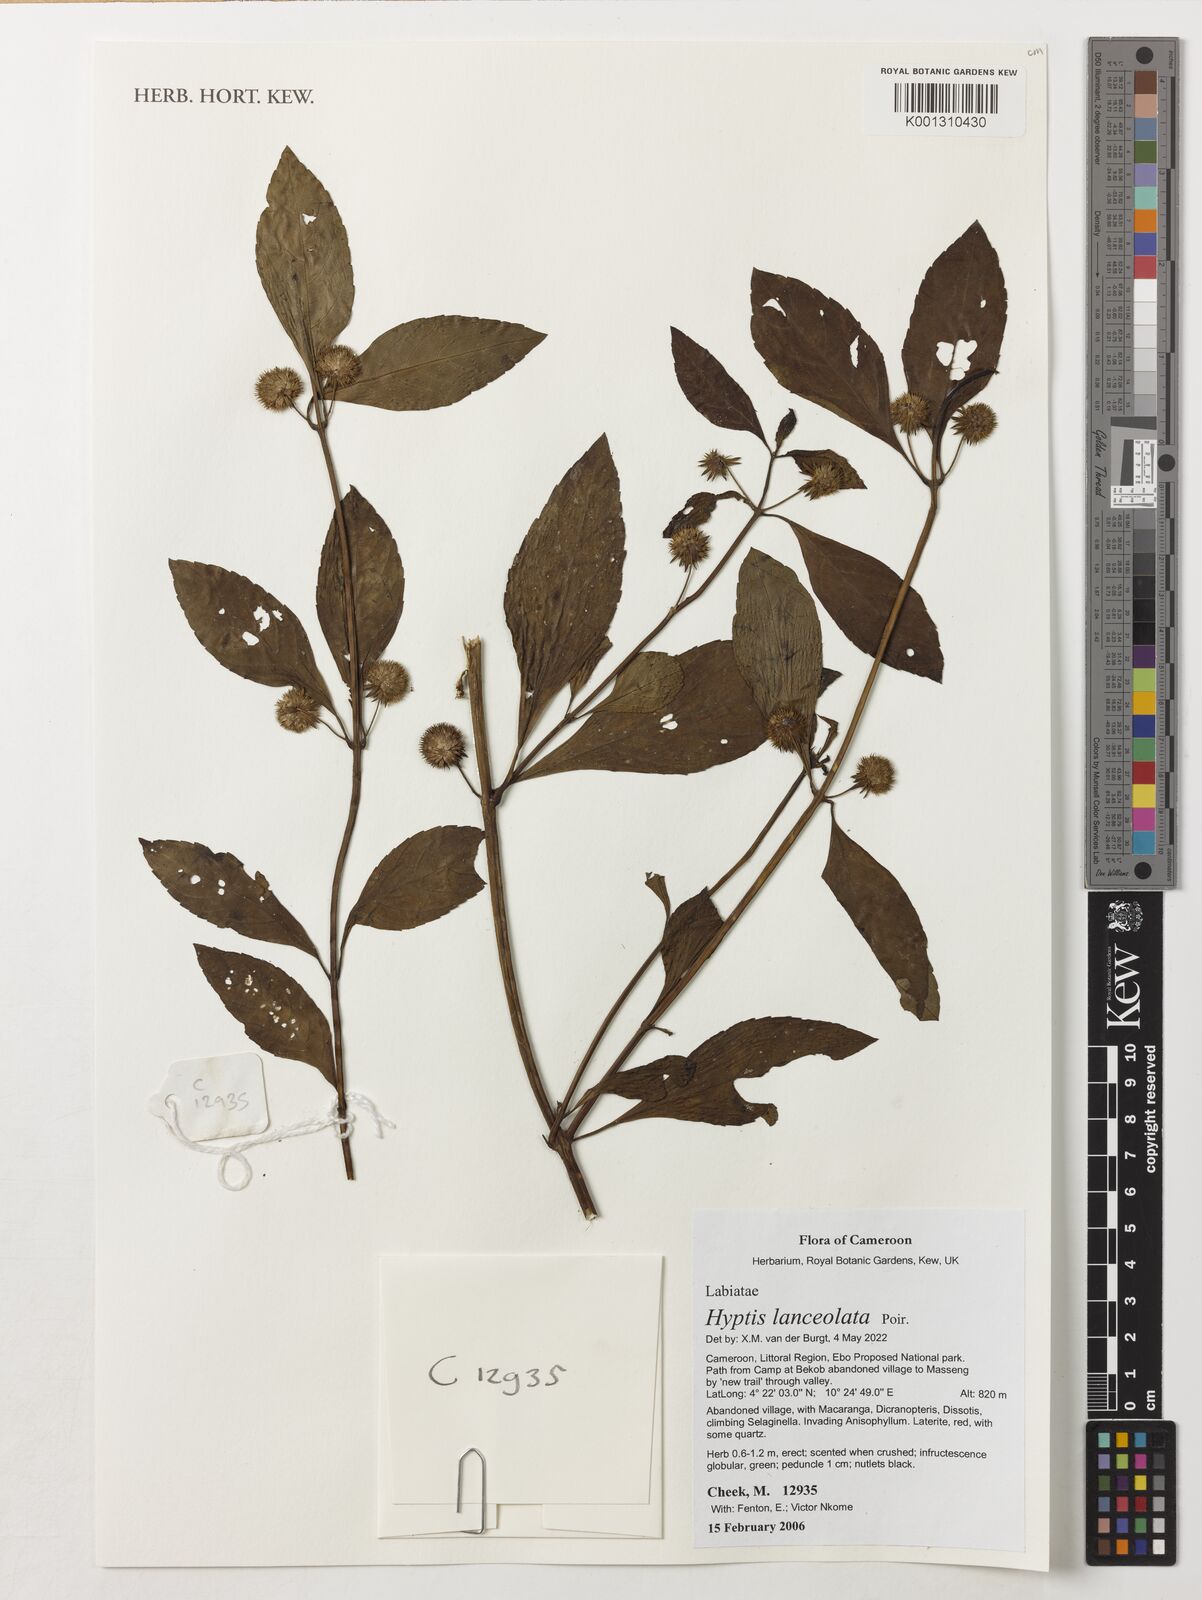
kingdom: Plantae
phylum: Tracheophyta
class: Magnoliopsida
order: Lamiales
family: Lamiaceae
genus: Hyptis
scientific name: Hyptis lanceolata
